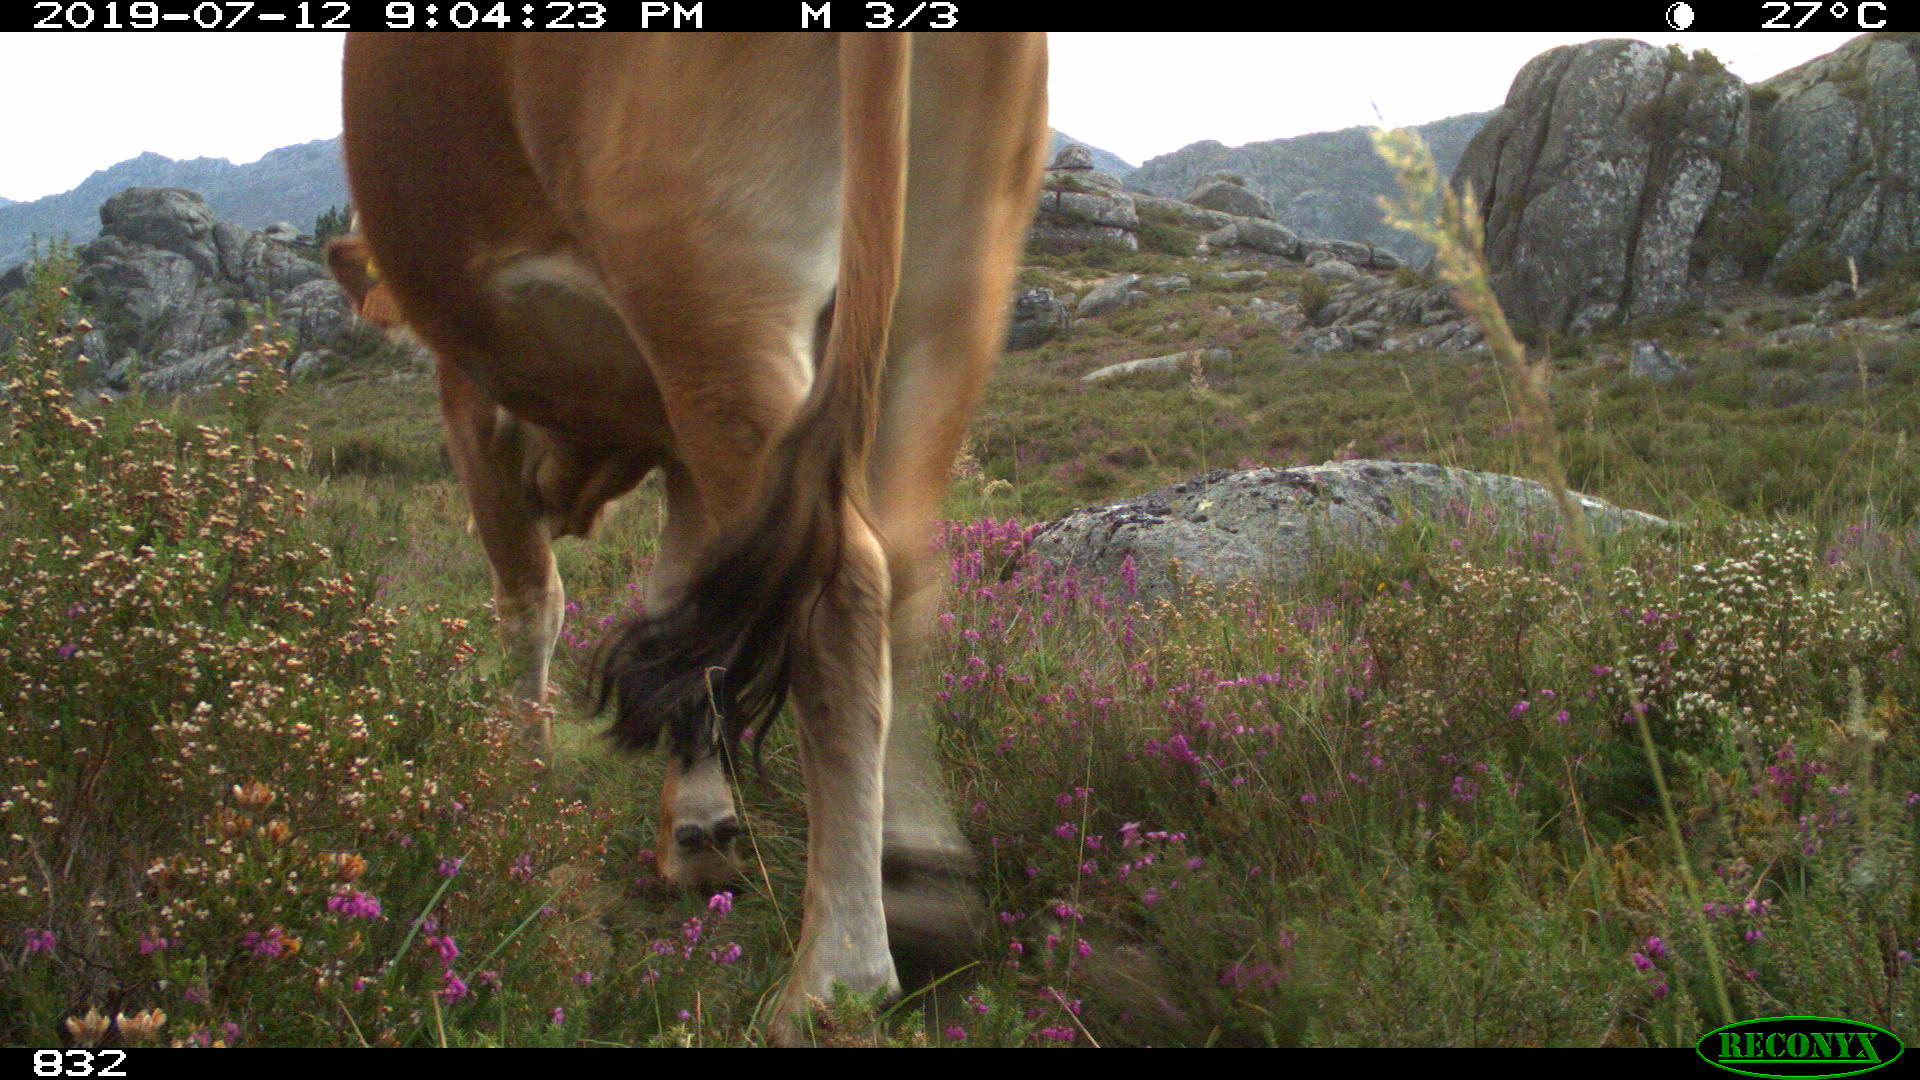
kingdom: Animalia
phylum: Chordata
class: Mammalia
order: Artiodactyla
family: Bovidae
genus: Bos
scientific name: Bos taurus
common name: Domesticated cattle
